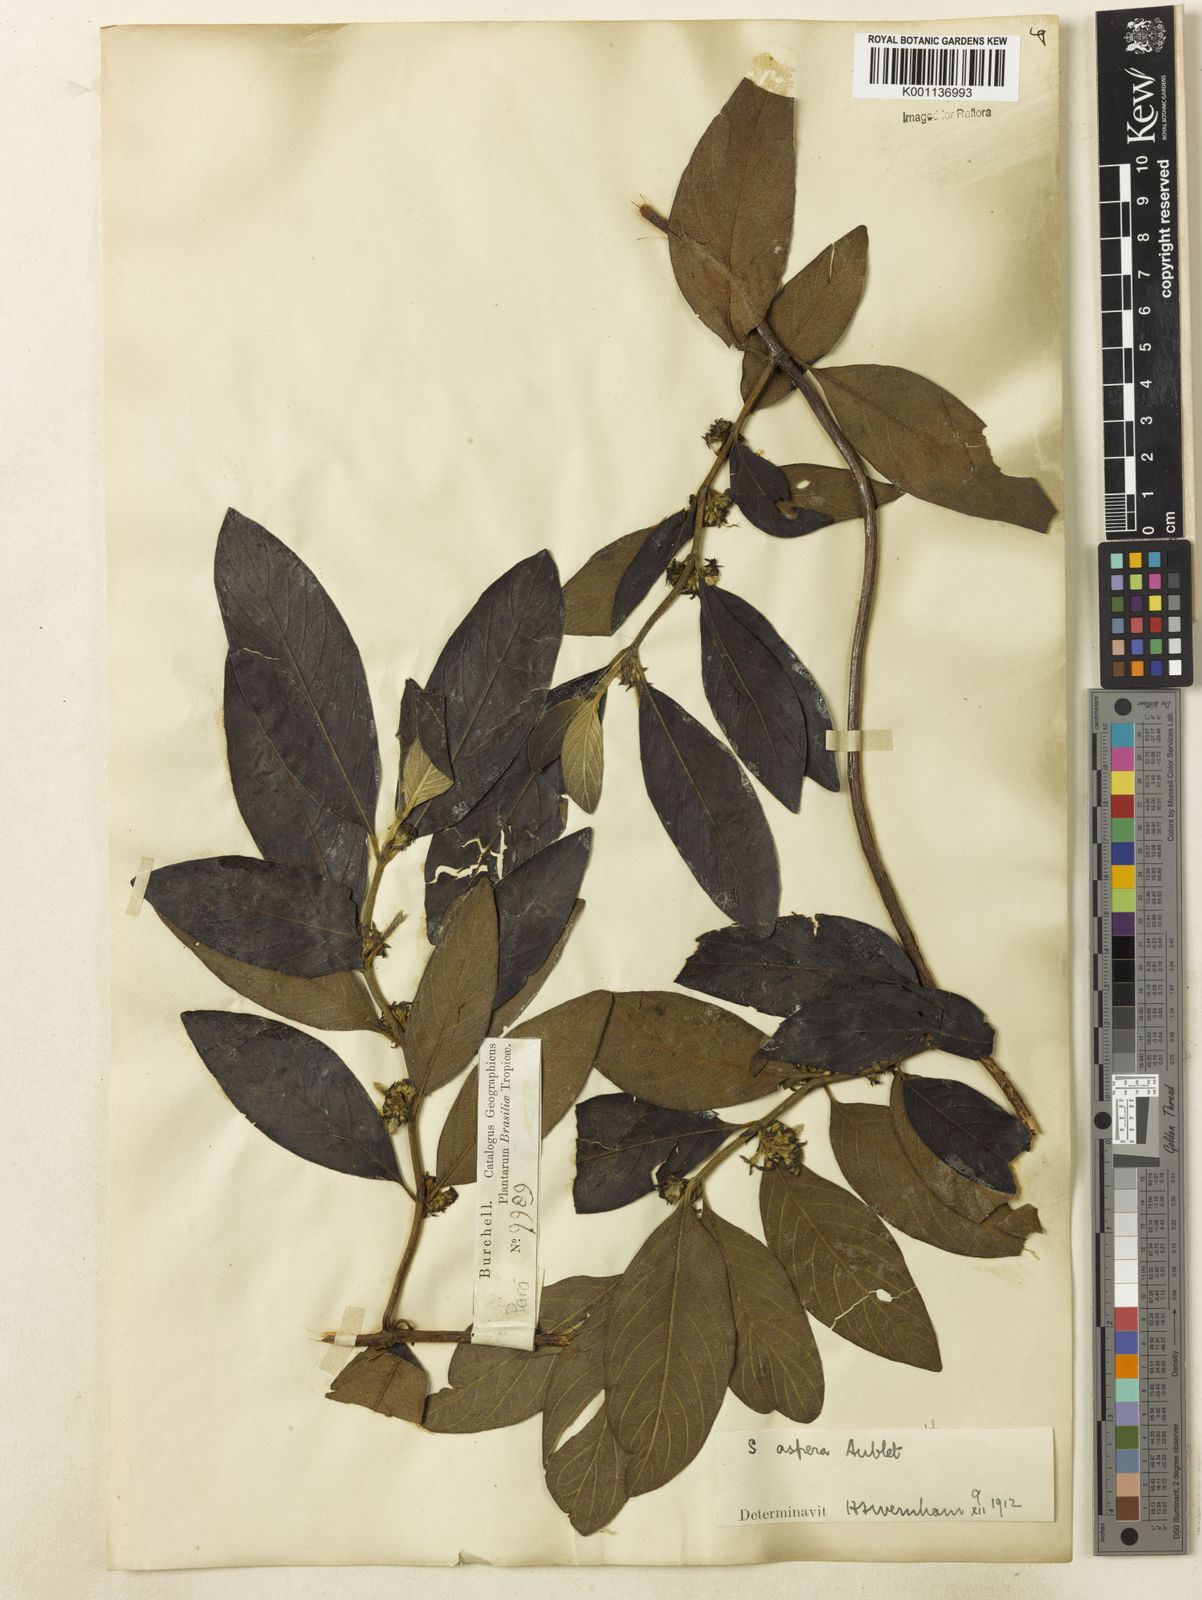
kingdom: Plantae
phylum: Tracheophyta
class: Magnoliopsida
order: Gentianales
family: Rubiaceae
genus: Sabicea
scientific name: Sabicea aspera
